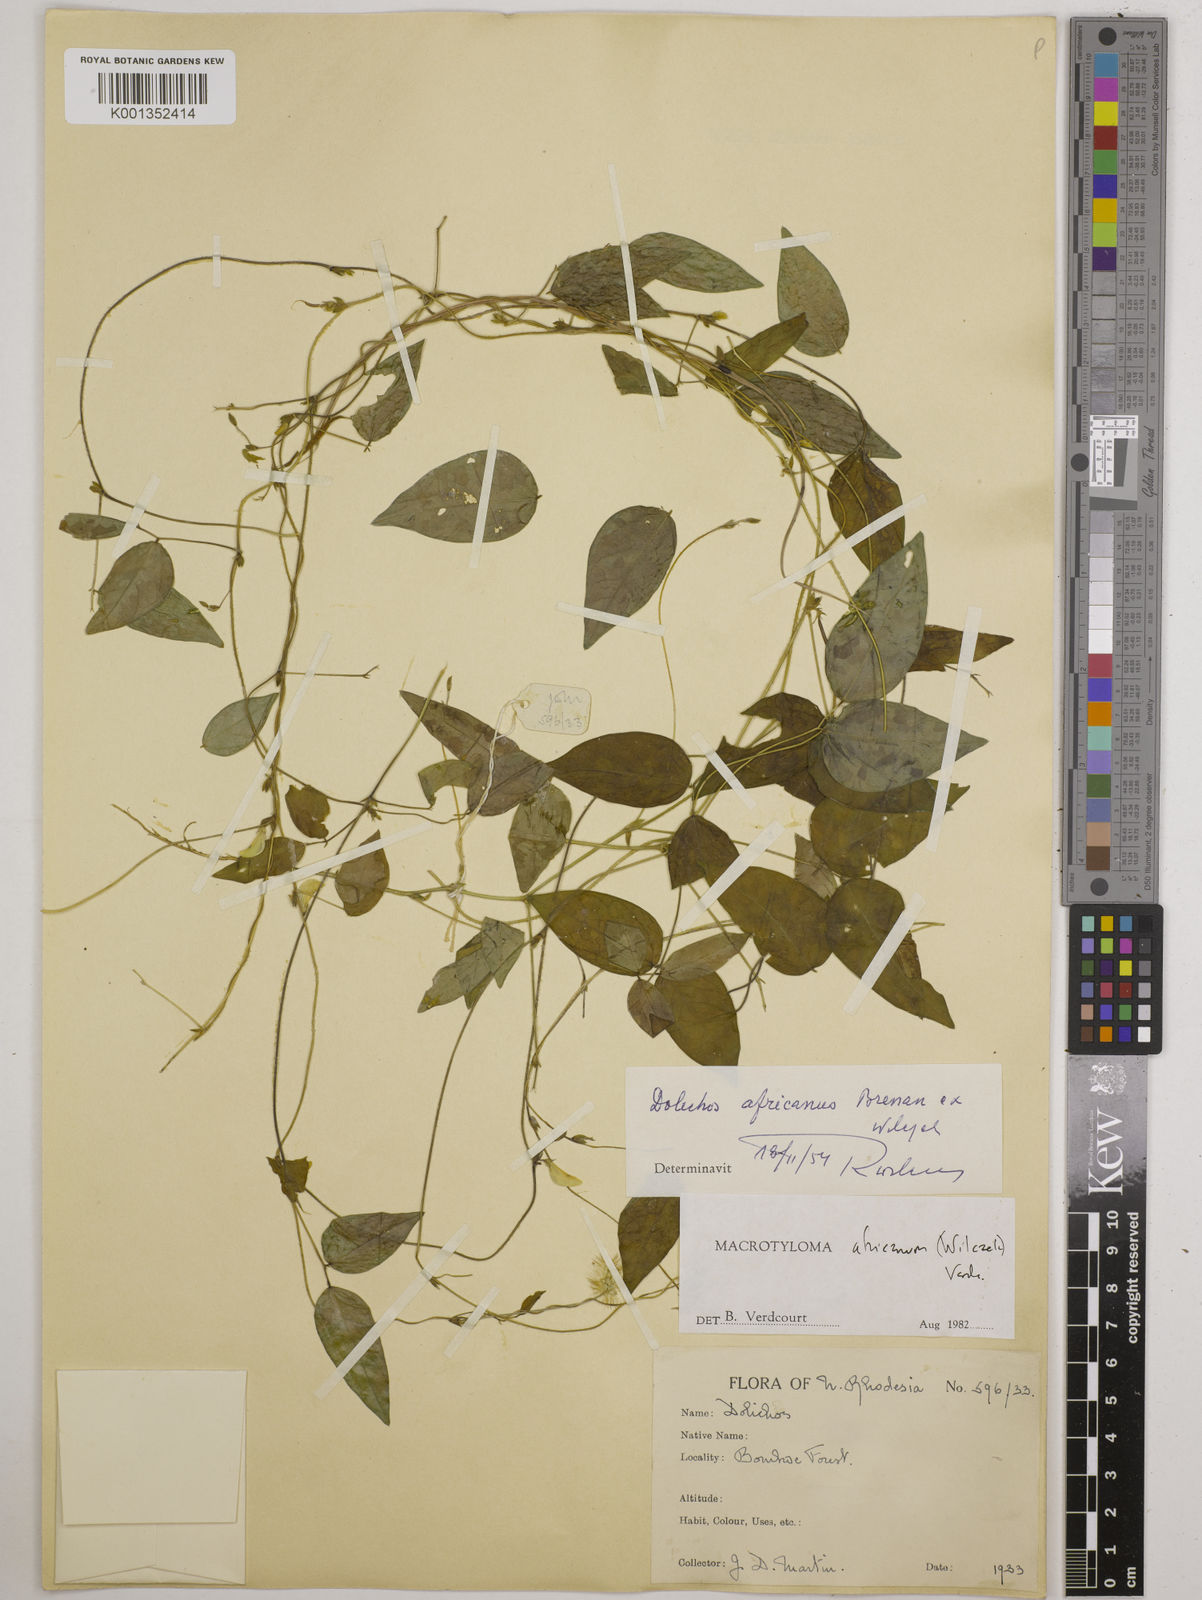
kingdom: Plantae
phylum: Tracheophyta
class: Magnoliopsida
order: Fabales
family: Fabaceae
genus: Macrotyloma
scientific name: Macrotyloma africanum
